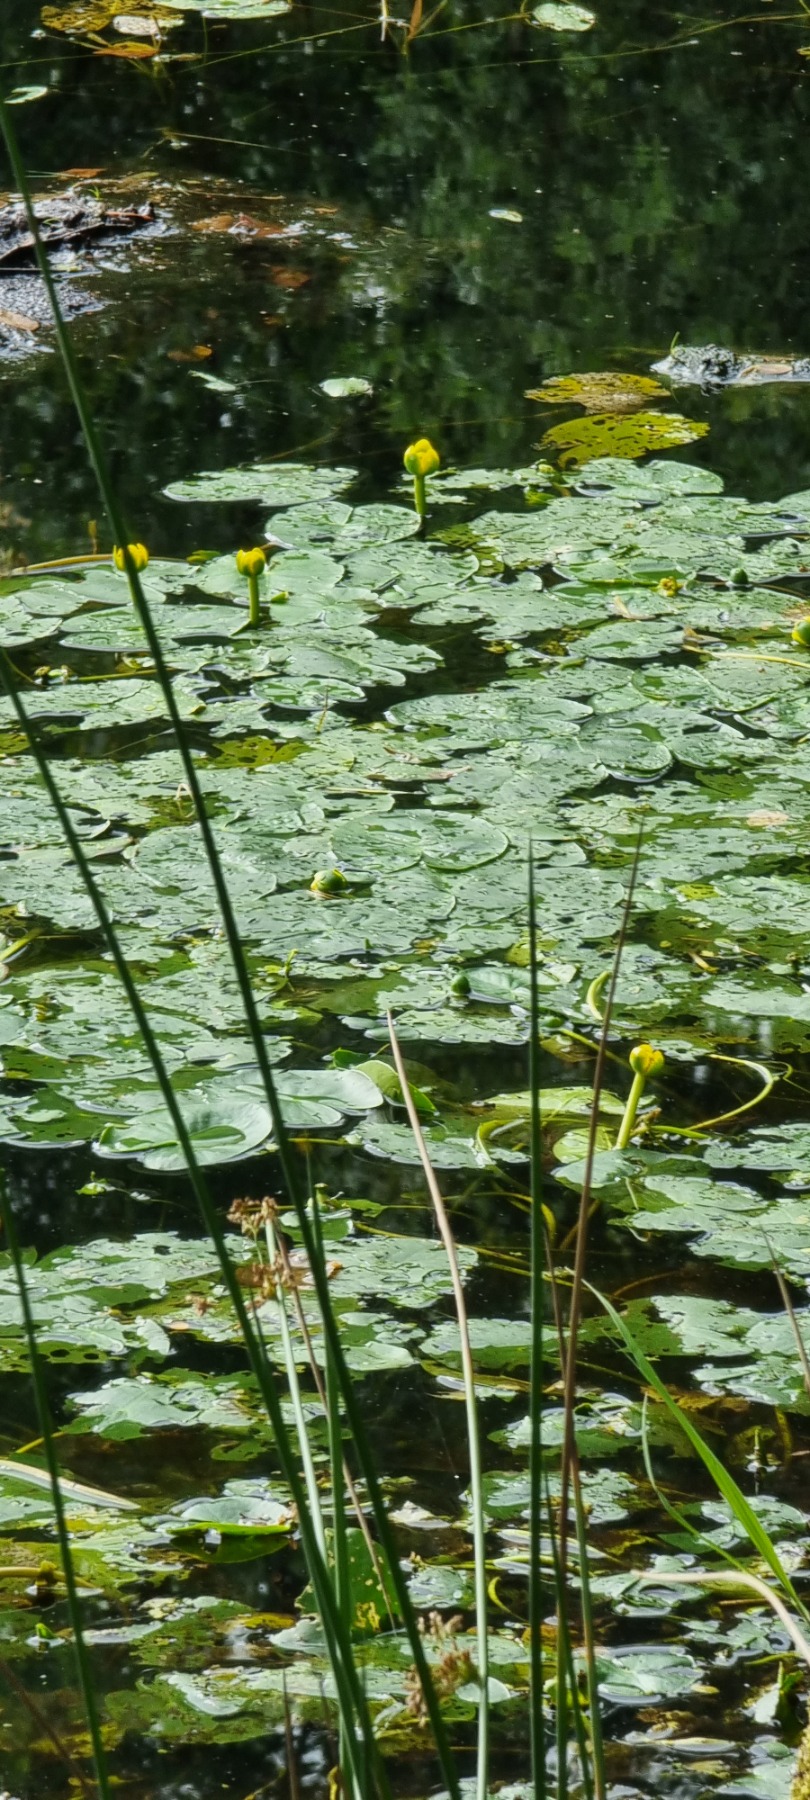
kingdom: Plantae
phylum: Tracheophyta
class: Magnoliopsida
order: Nymphaeales
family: Nymphaeaceae
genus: Nuphar
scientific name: Nuphar pumila
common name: Liden åkande
